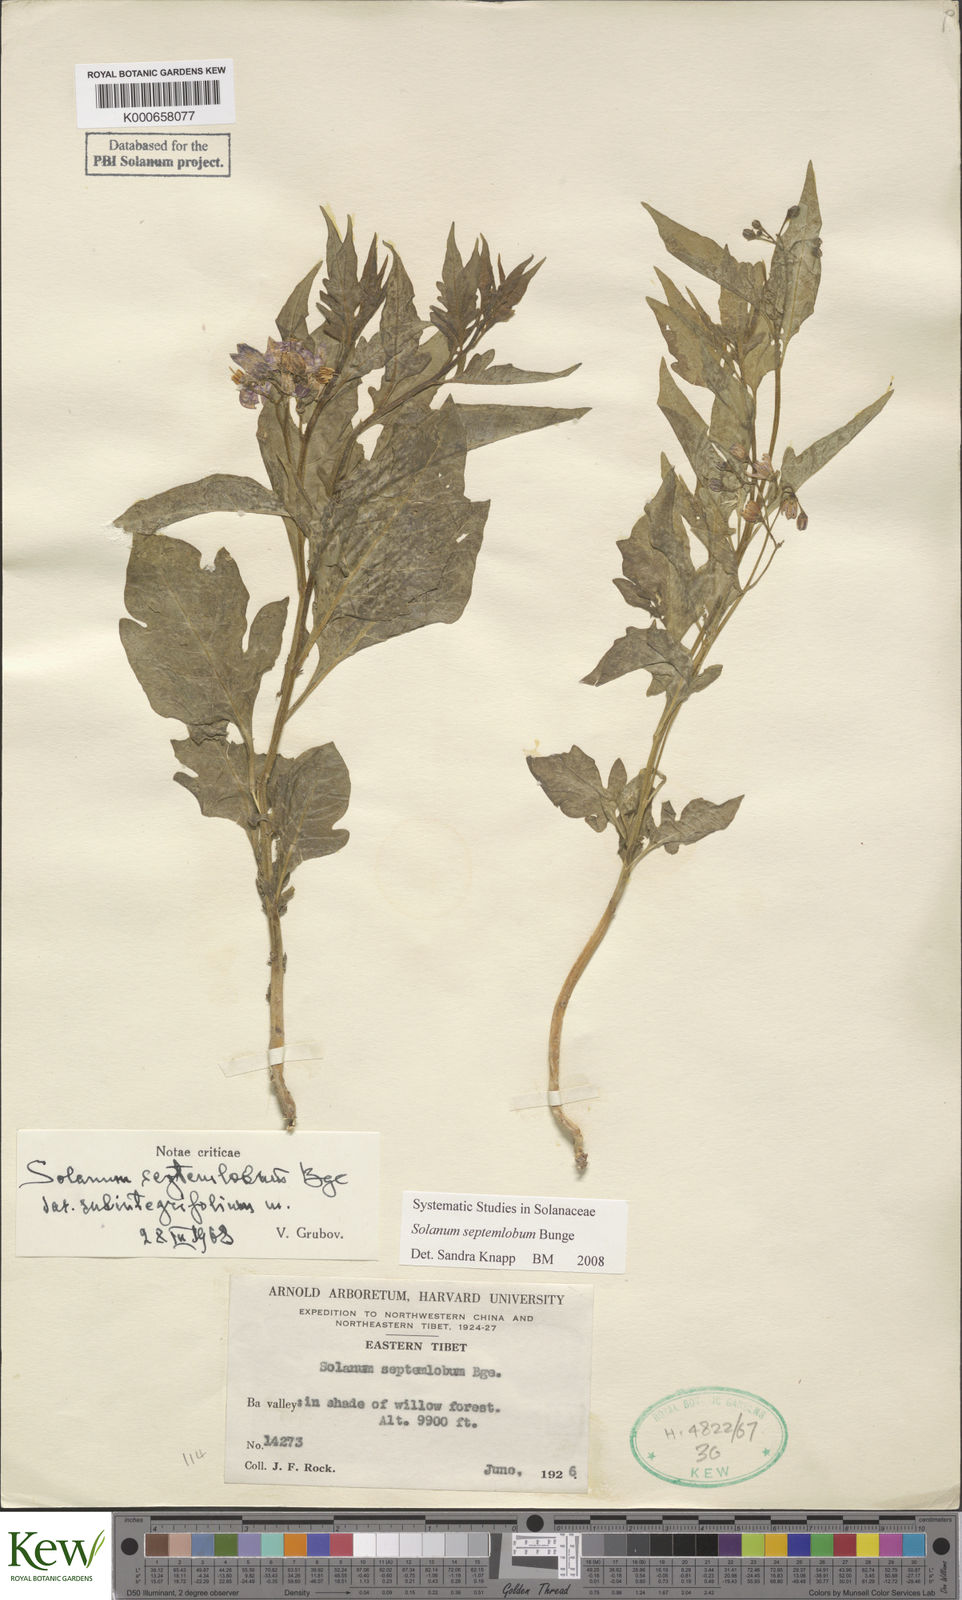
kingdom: Plantae
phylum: Tracheophyta
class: Magnoliopsida
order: Solanales
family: Solanaceae
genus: Solanum
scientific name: Solanum septemlobum
